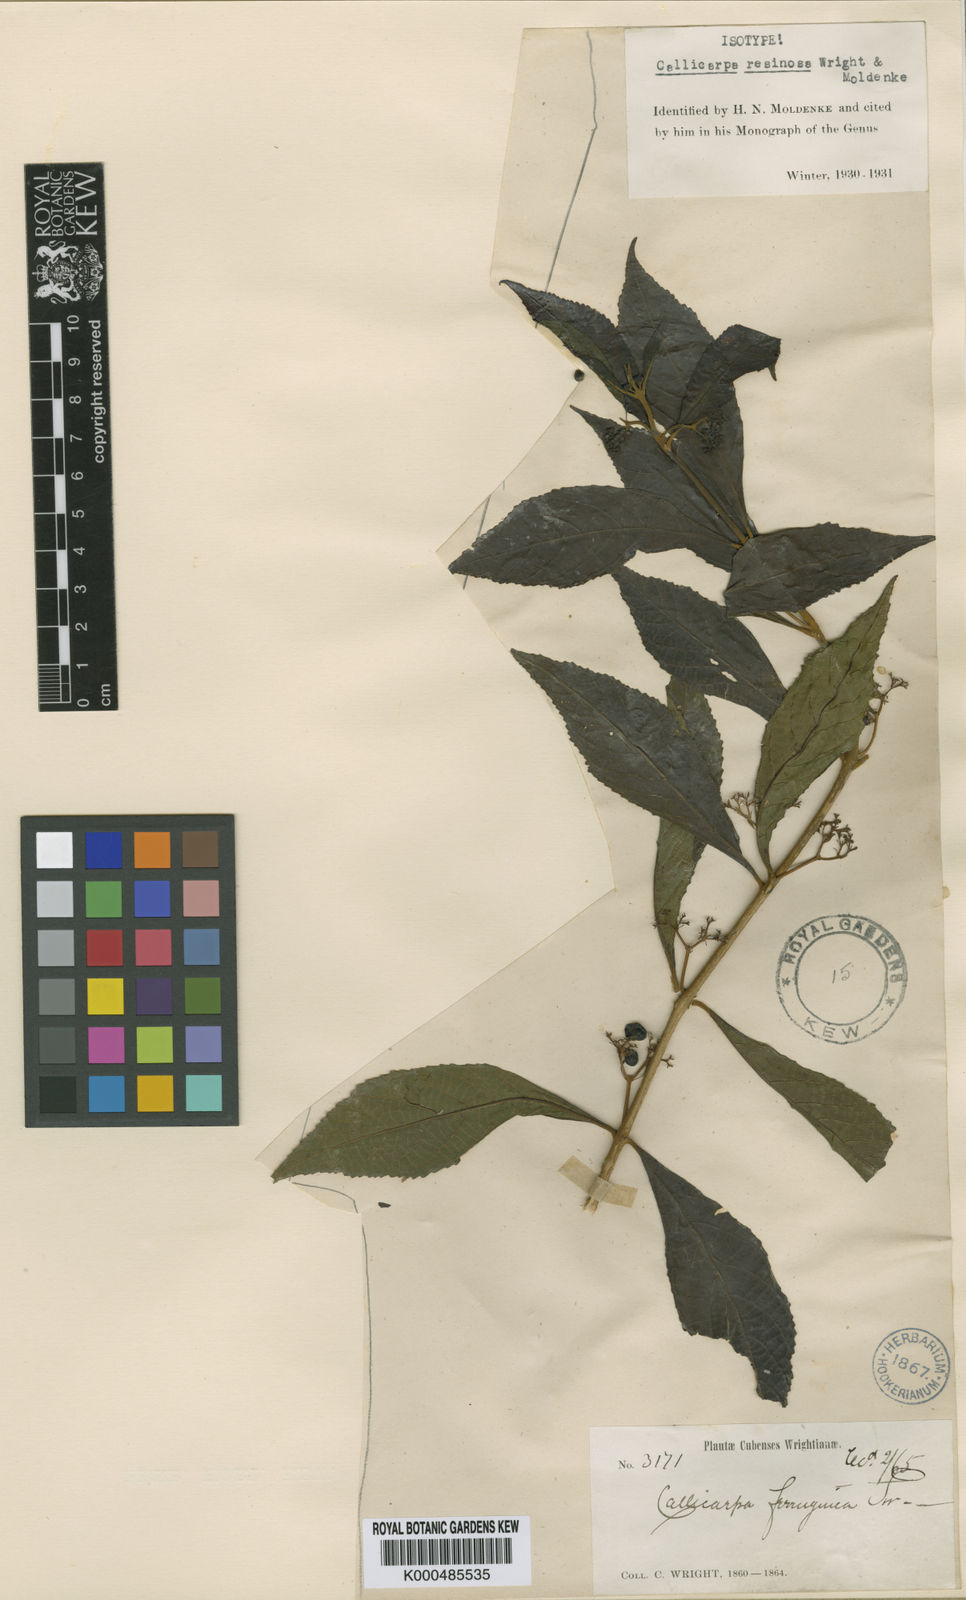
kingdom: Plantae
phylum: Tracheophyta
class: Magnoliopsida
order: Lamiales
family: Lamiaceae
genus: Callicarpa
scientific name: Callicarpa resinosa
